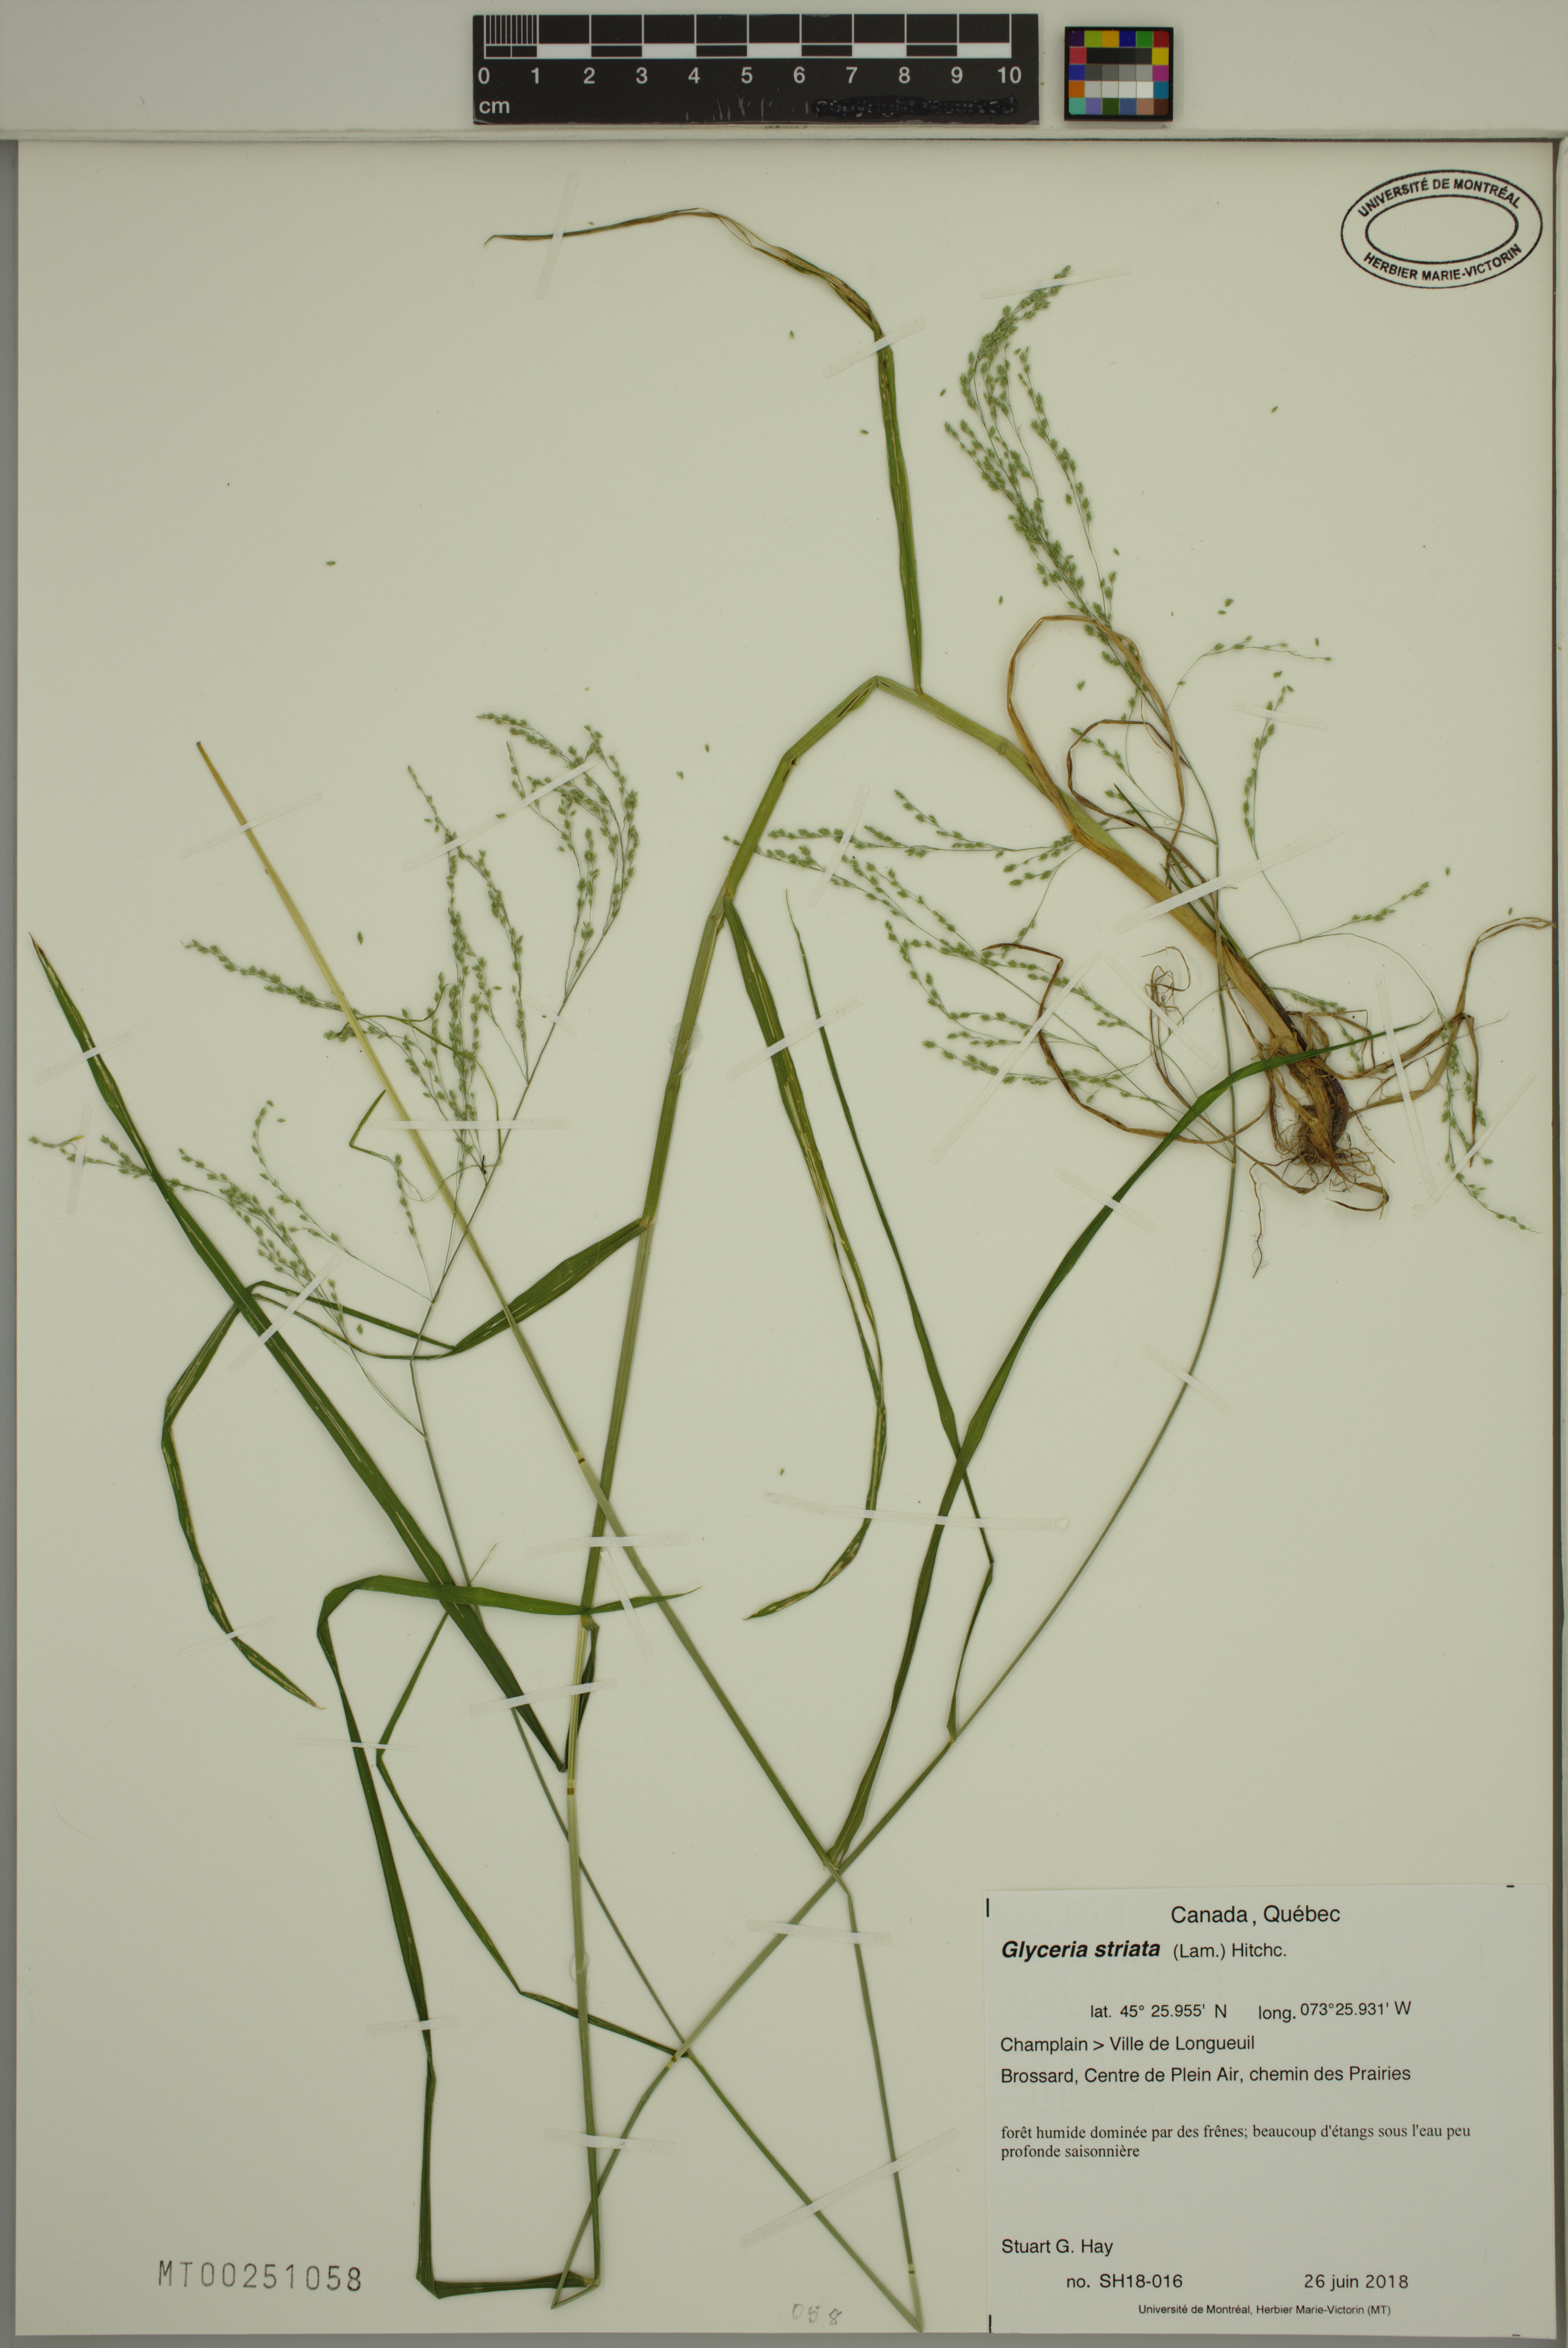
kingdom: Plantae
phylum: Tracheophyta
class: Liliopsida
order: Poales
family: Poaceae
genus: Glyceria
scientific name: Glyceria striata
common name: Fowl manna grass
